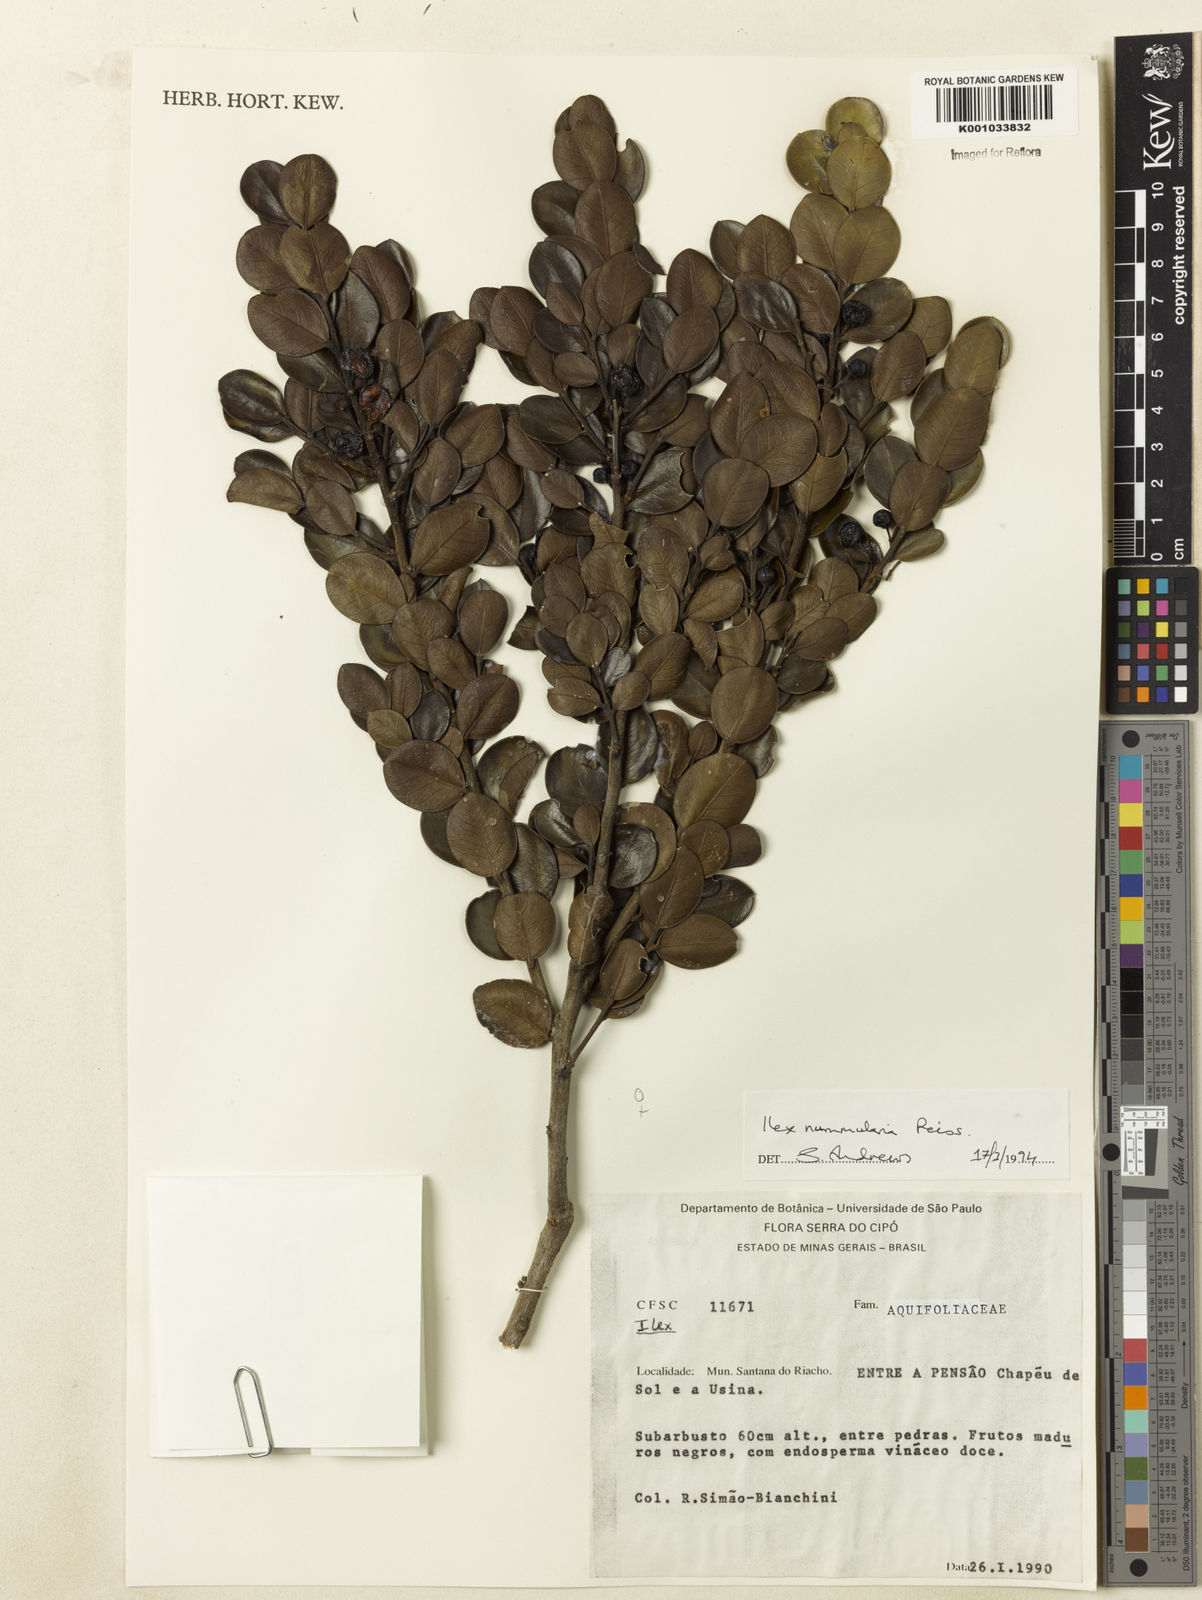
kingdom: Plantae
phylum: Tracheophyta
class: Magnoliopsida
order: Aquifoliales
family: Aquifoliaceae
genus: Ilex
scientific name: Ilex nummularia
